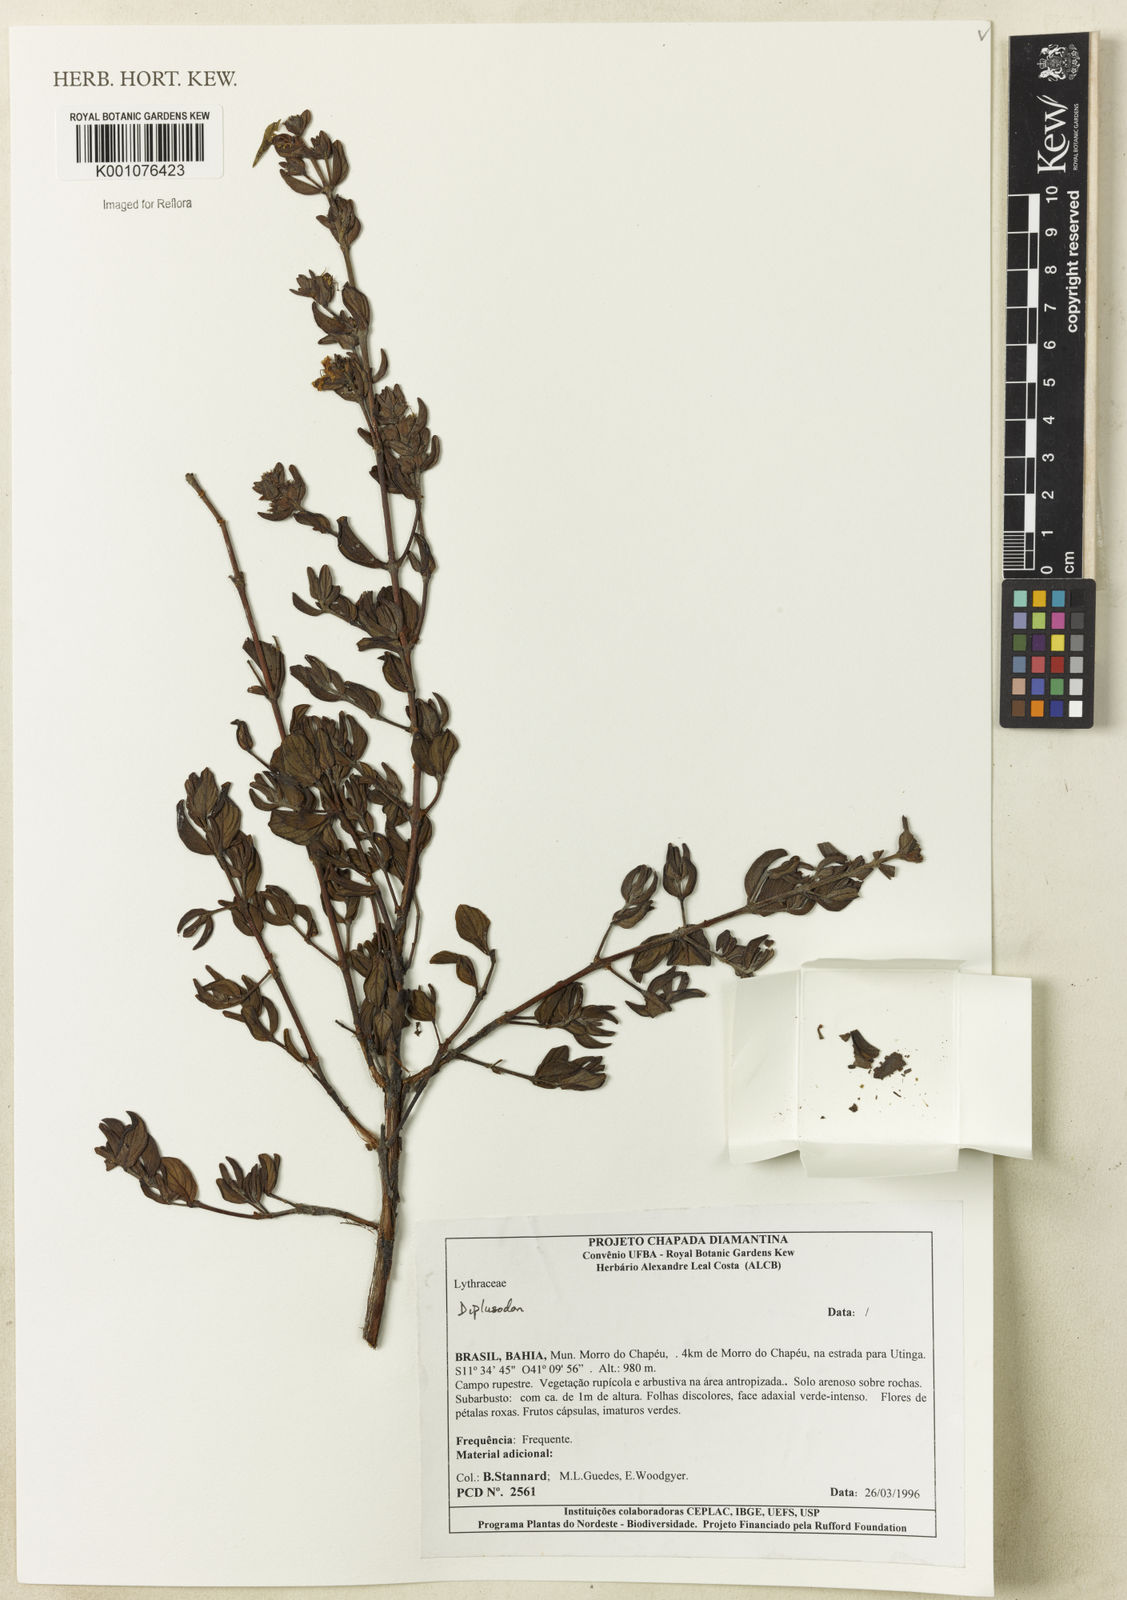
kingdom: Plantae
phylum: Tracheophyta
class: Magnoliopsida
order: Myrtales
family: Lythraceae
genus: Diplusodon
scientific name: Diplusodon
